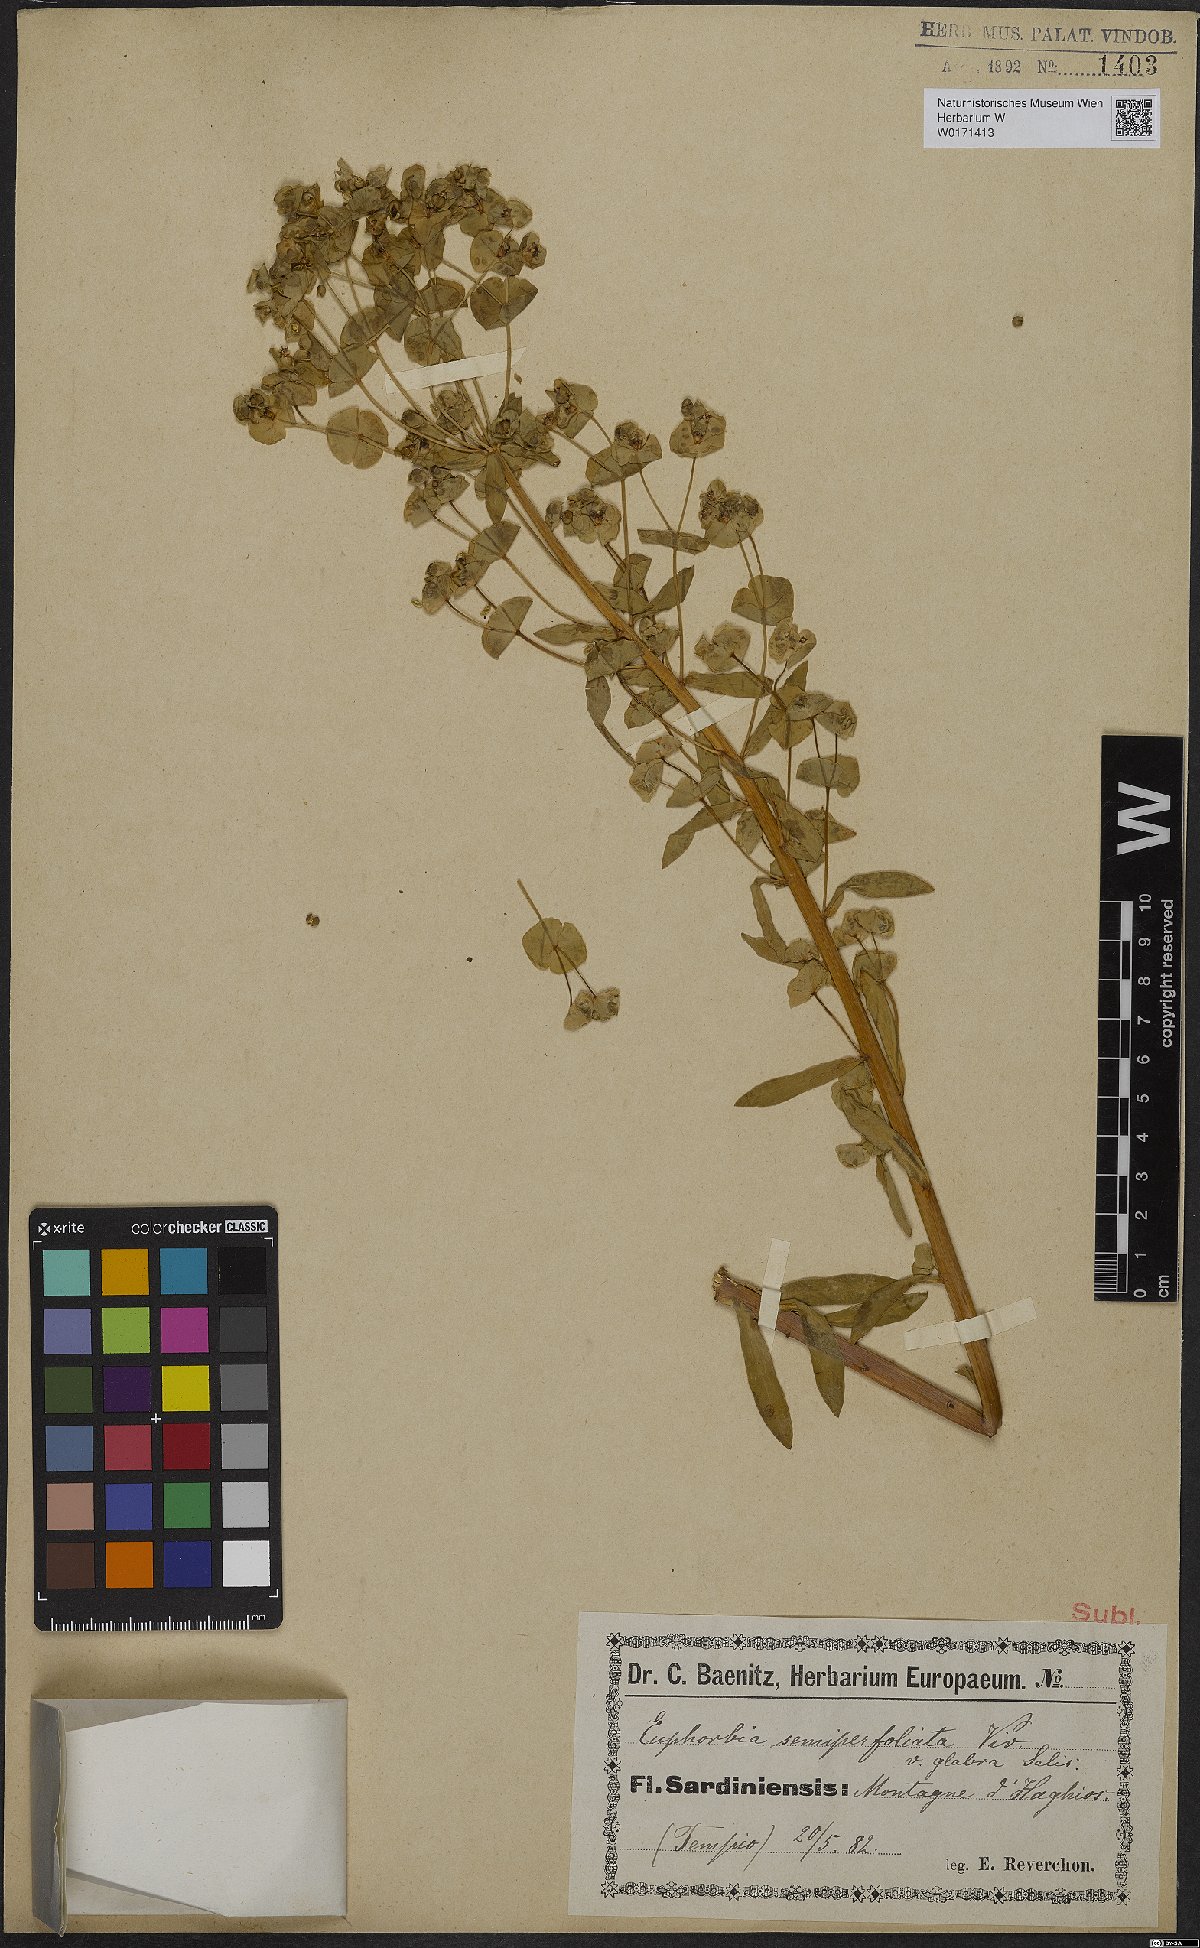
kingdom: Plantae
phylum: Tracheophyta
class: Magnoliopsida
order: Malpighiales
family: Euphorbiaceae
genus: Euphorbia
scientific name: Euphorbia semiperfoliata
